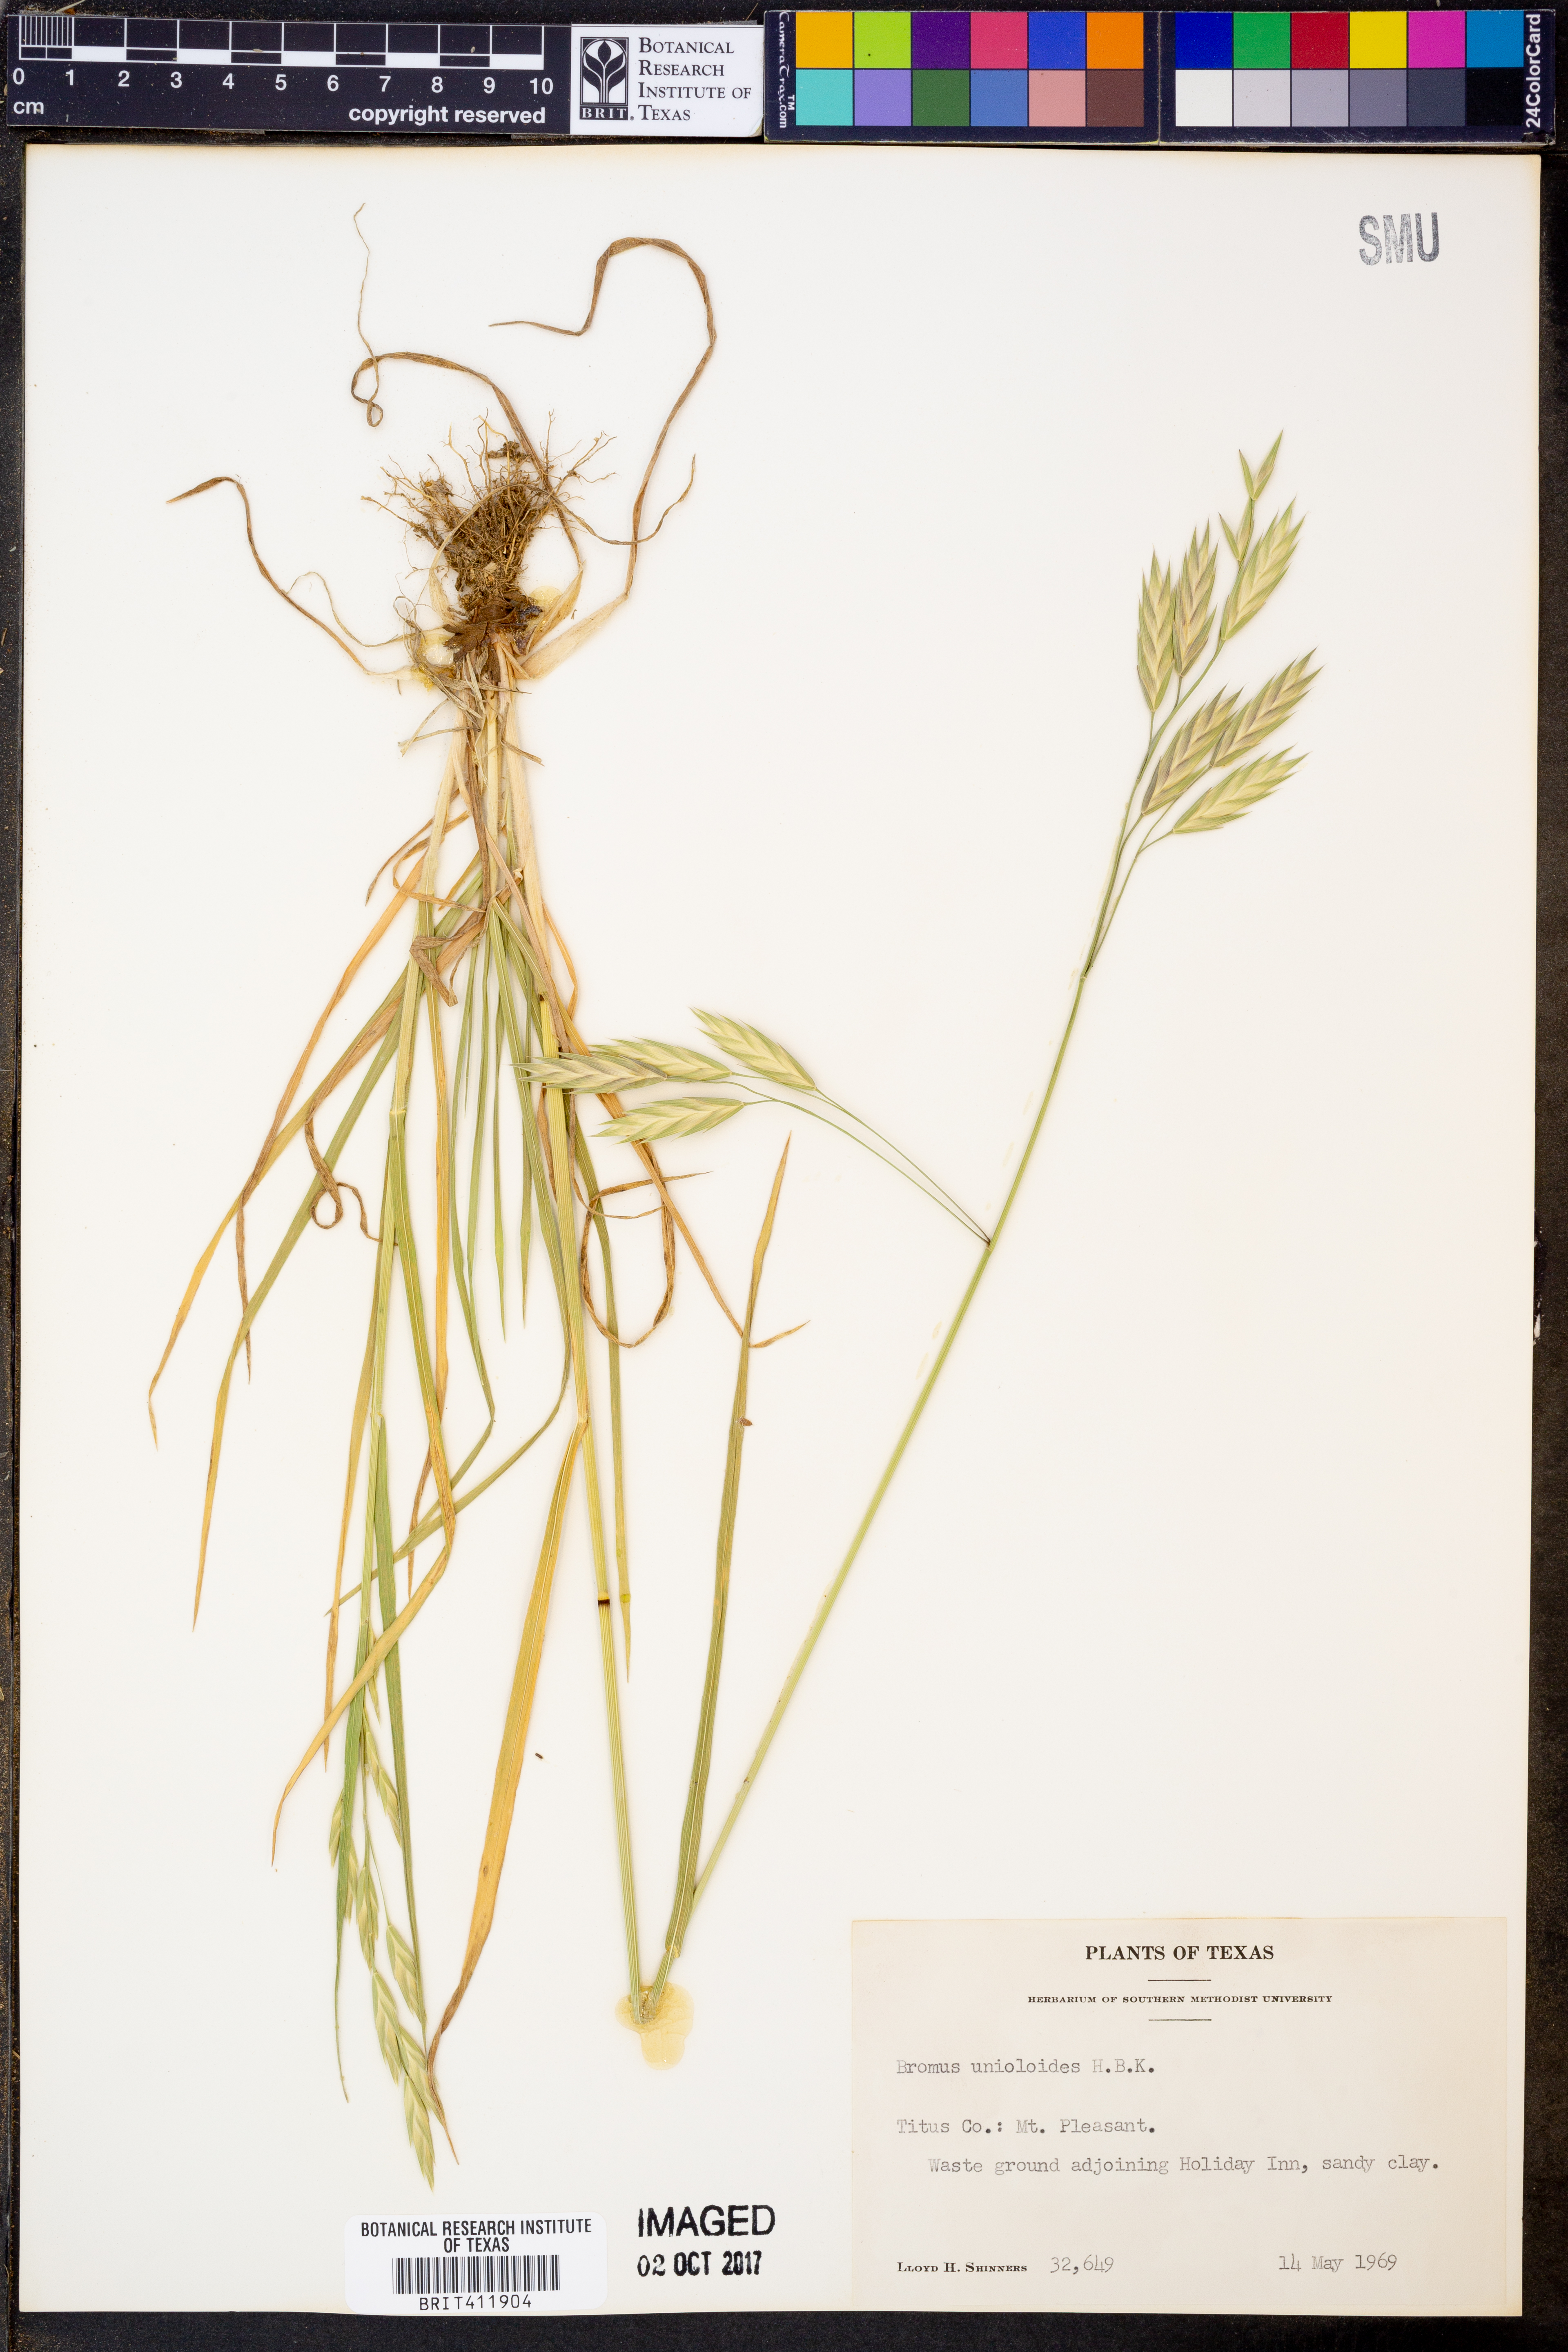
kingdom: Plantae
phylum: Tracheophyta
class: Liliopsida
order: Poales
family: Poaceae
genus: Bromus
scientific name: Bromus catharticus
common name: Rescuegrass
